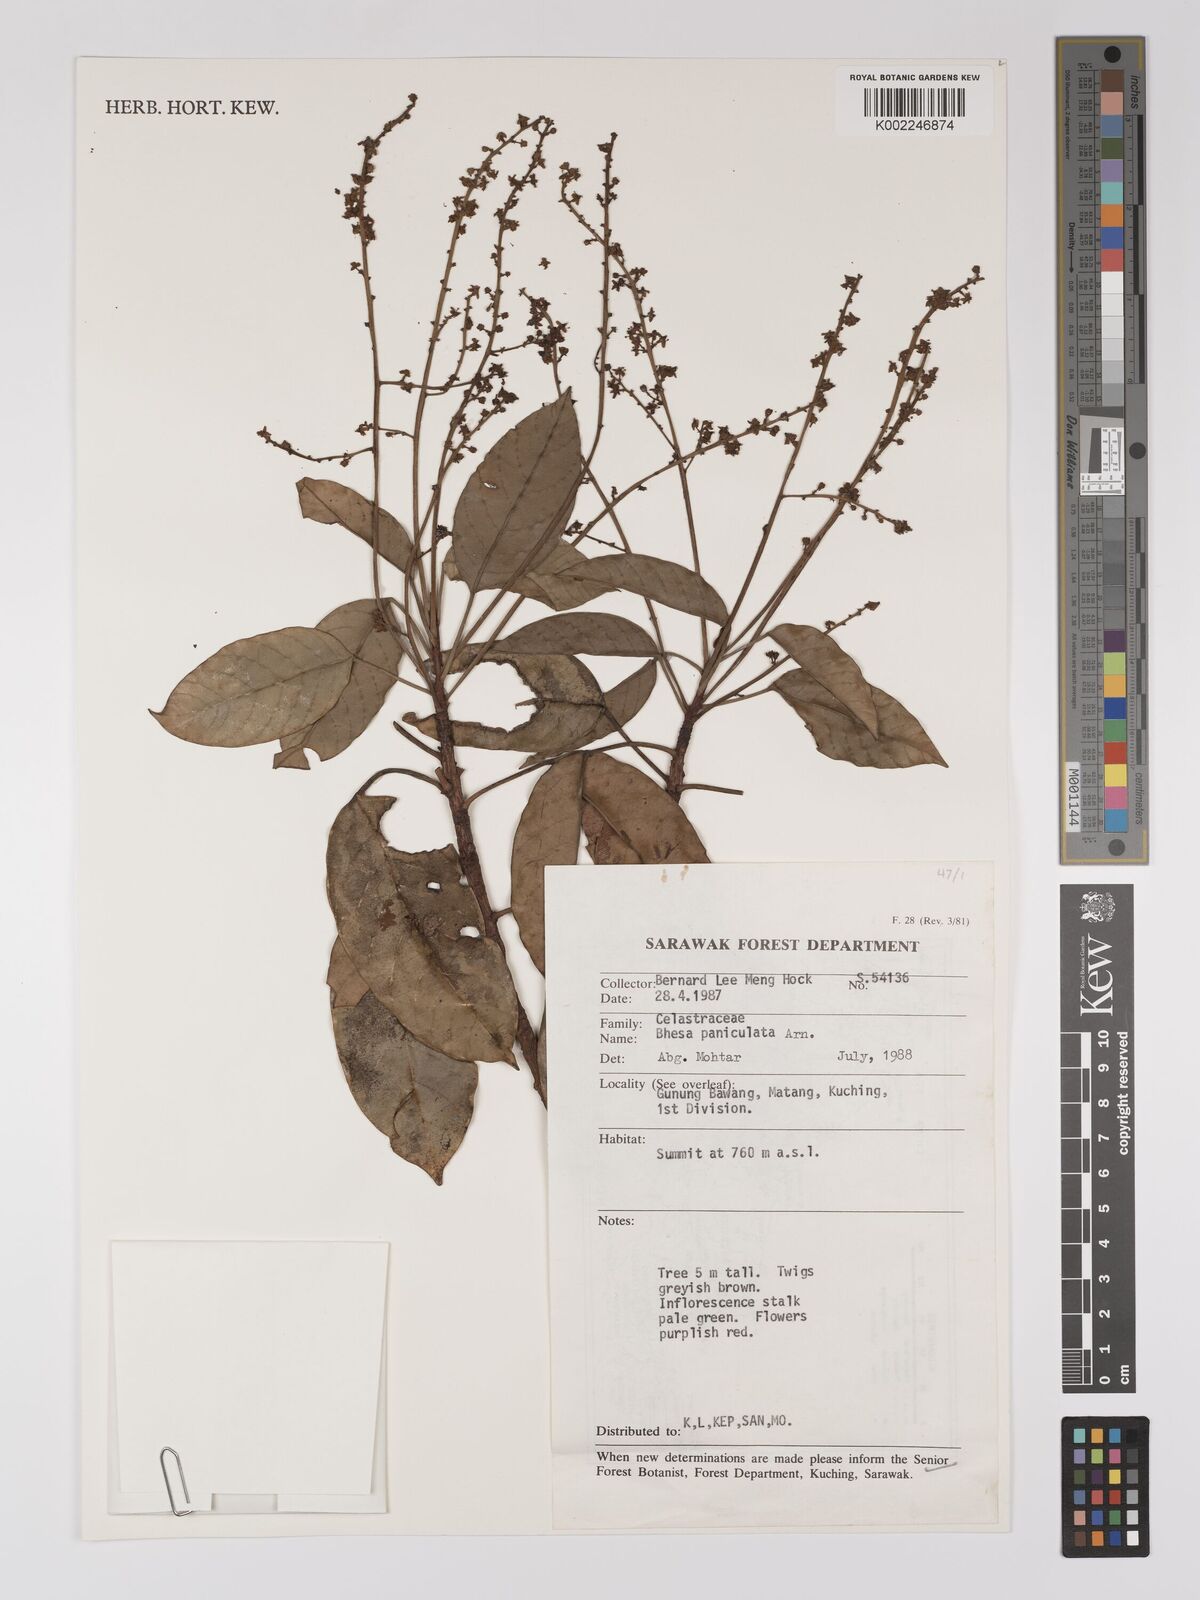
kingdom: Plantae
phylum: Tracheophyta
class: Magnoliopsida
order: Malpighiales
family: Centroplacaceae
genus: Bhesa
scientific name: Bhesa paniculata
